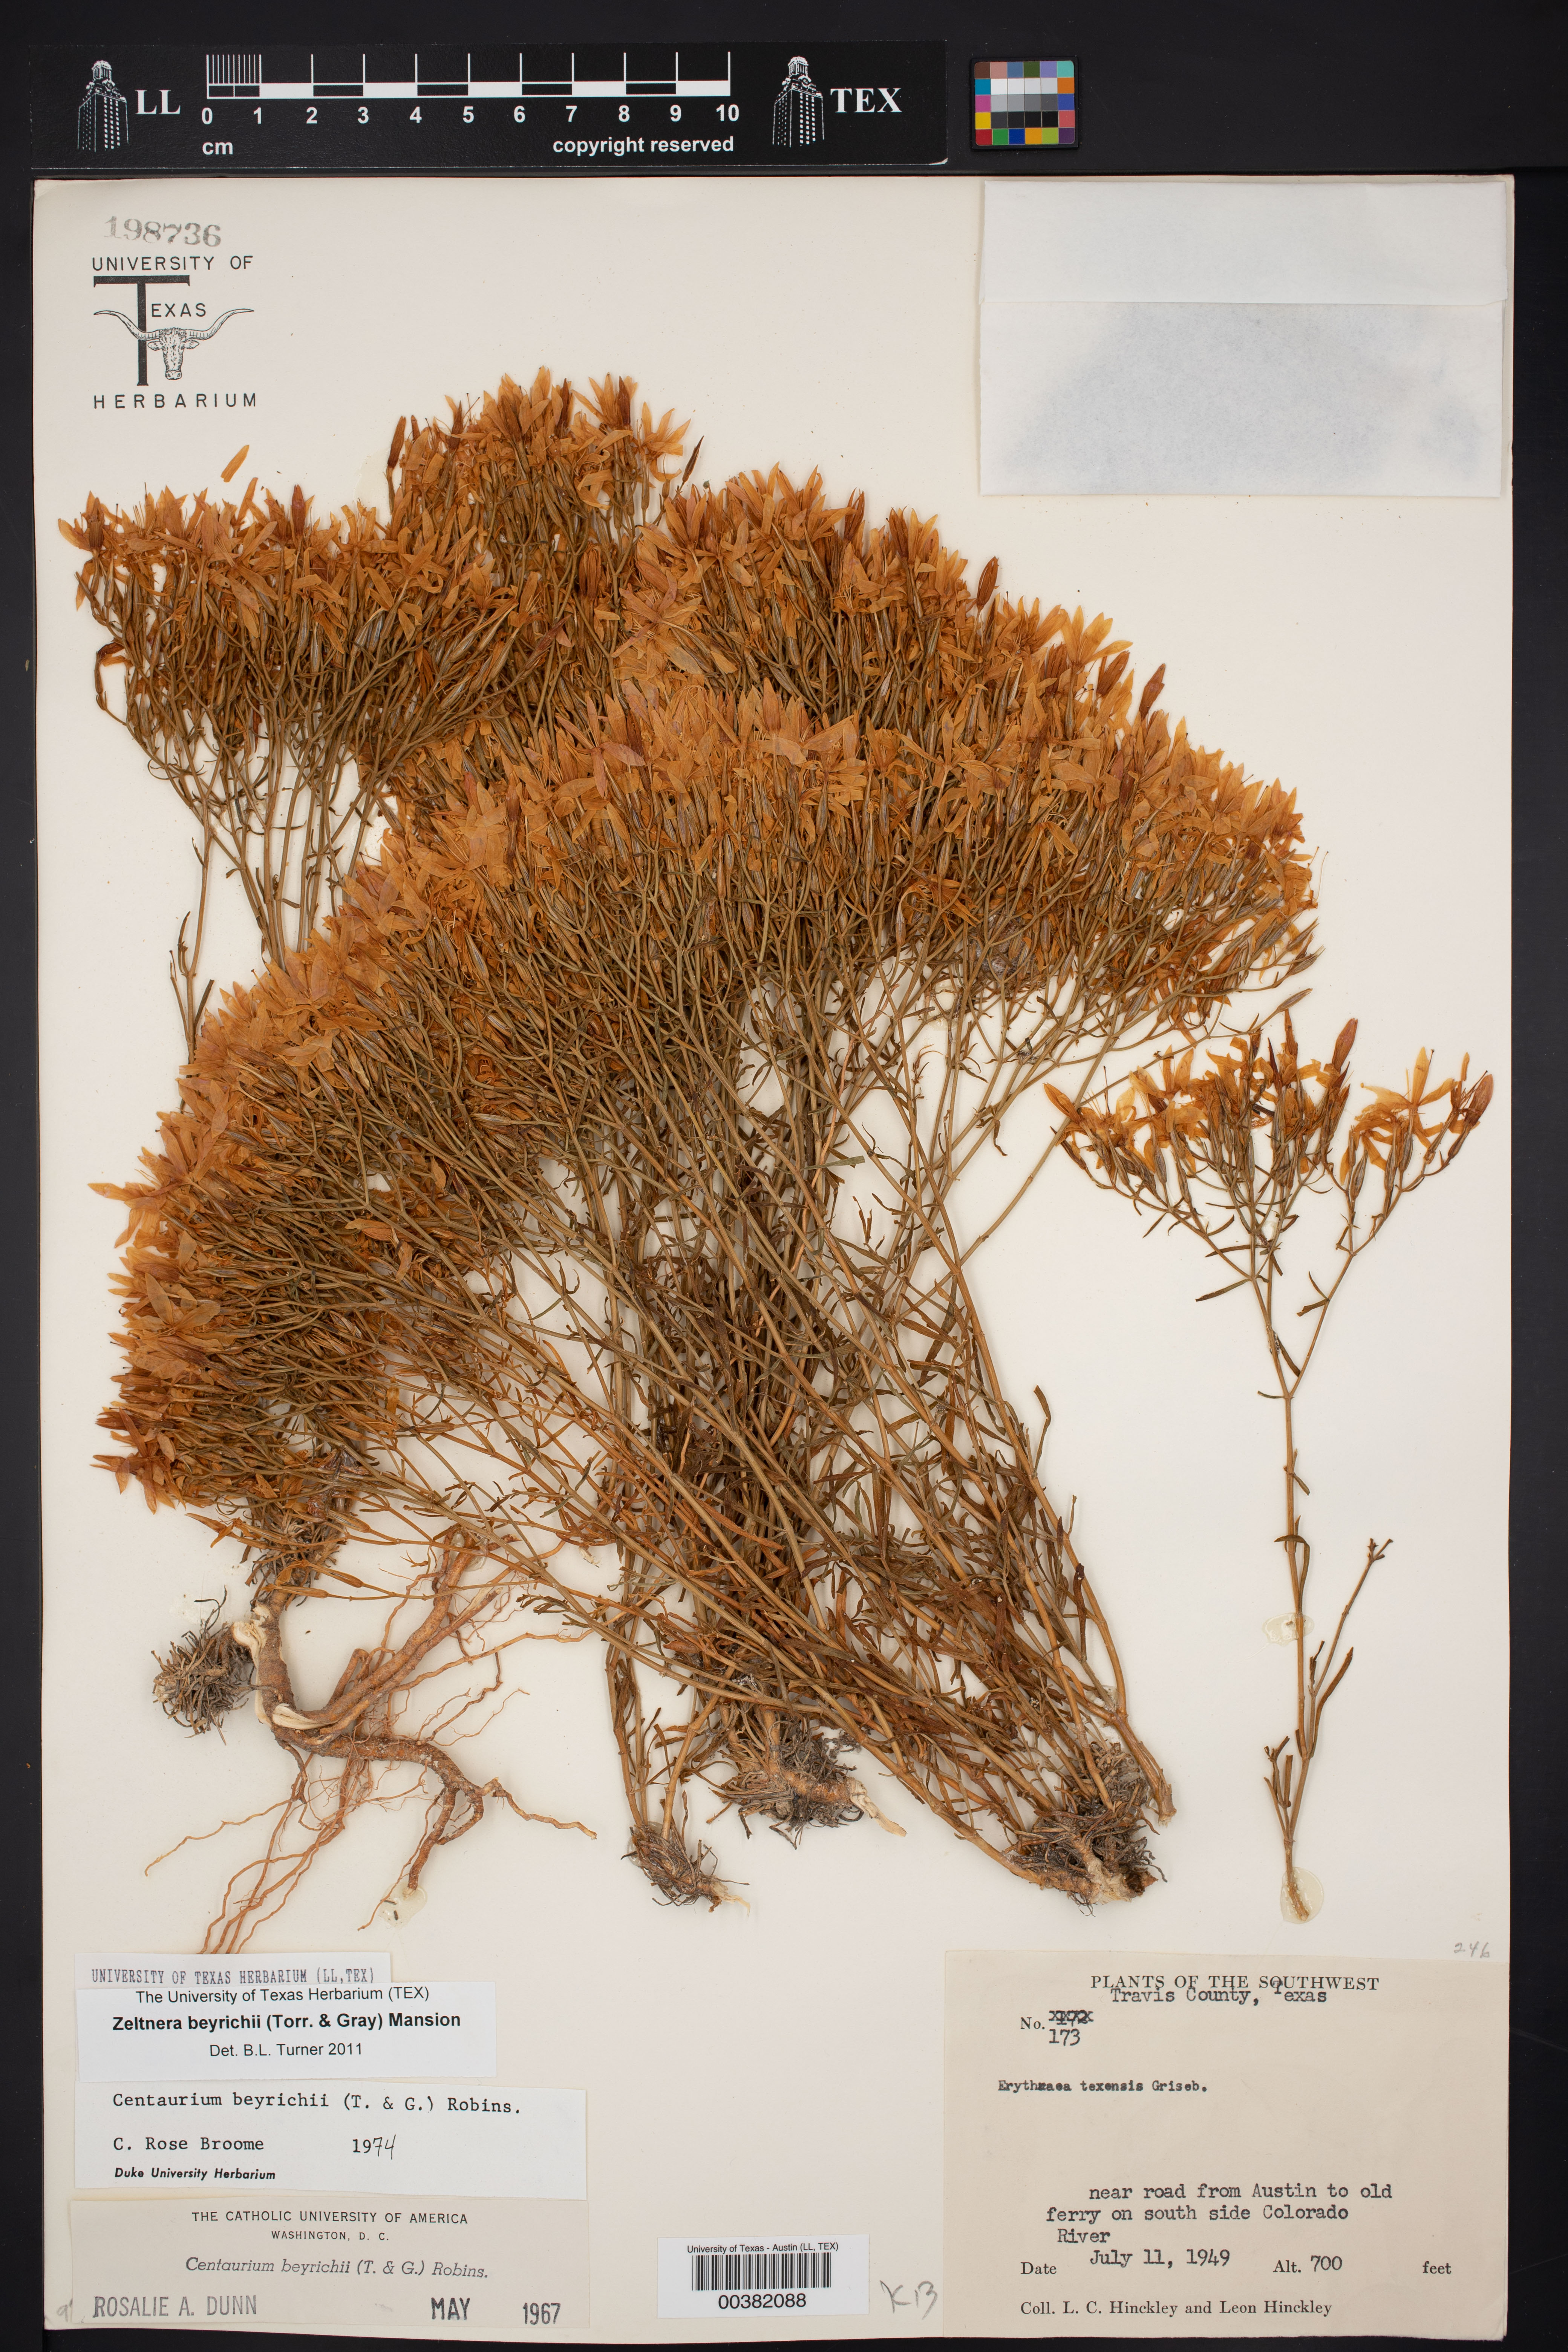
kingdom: Plantae
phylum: Tracheophyta
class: Magnoliopsida
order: Gentianales
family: Gentianaceae
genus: Zeltnera
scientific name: Zeltnera beyrichii
